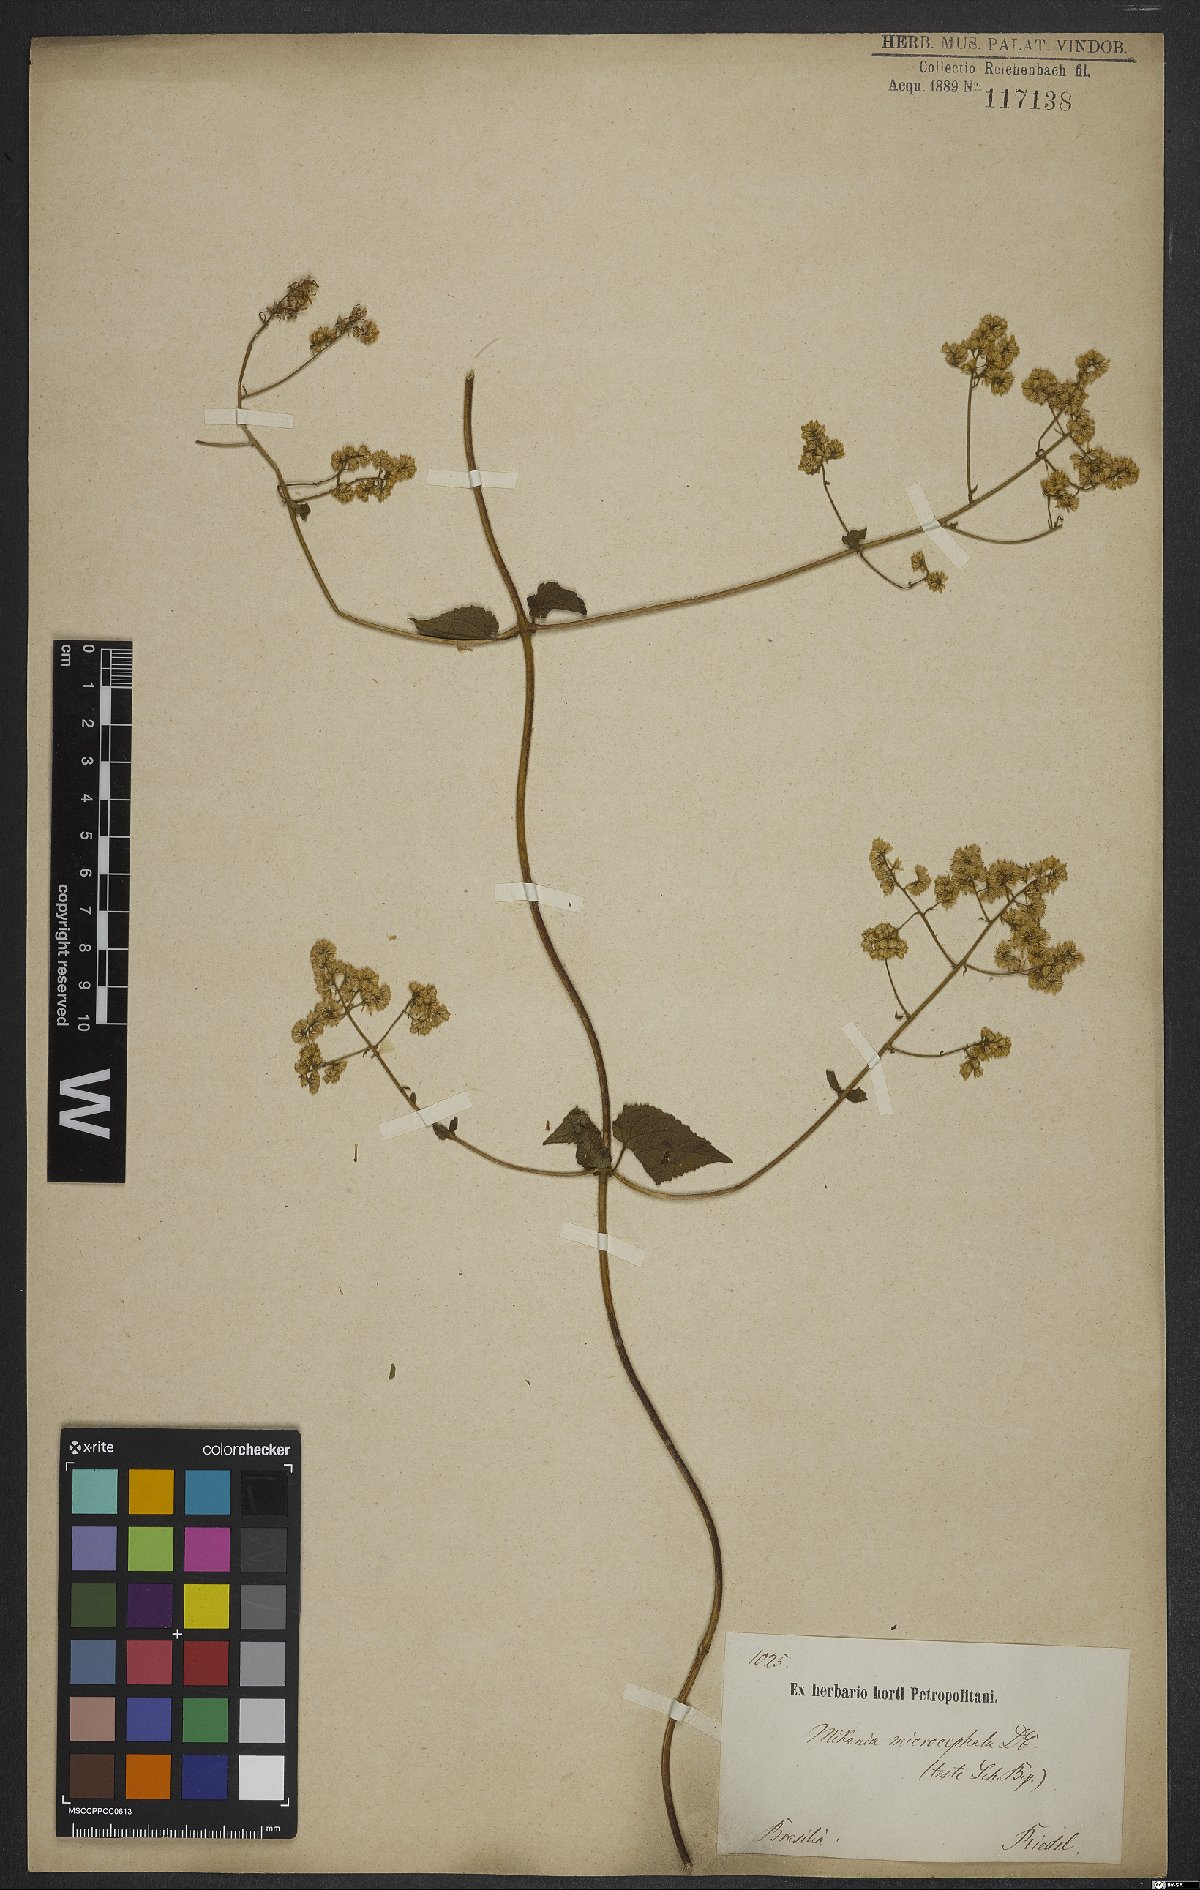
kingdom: Plantae
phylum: Tracheophyta
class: Magnoliopsida
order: Asterales
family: Asteraceae
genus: Mikania
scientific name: Mikania microcephala
